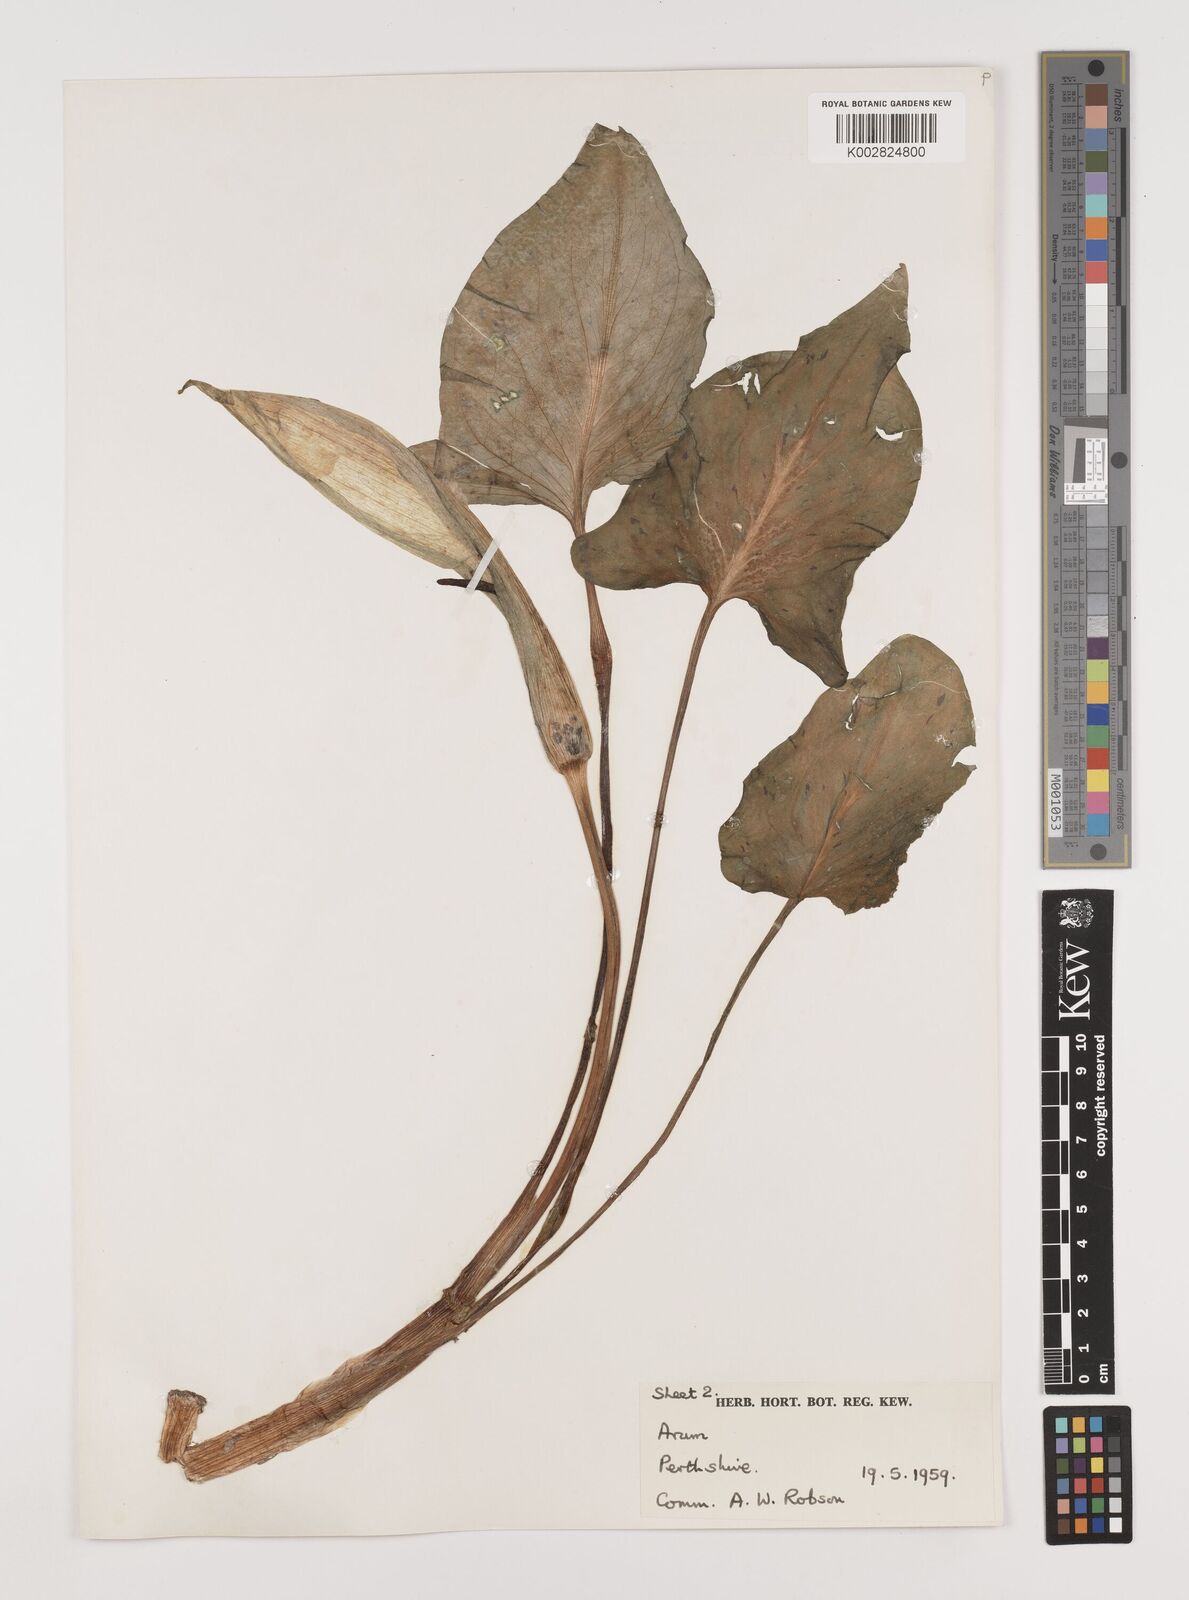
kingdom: Plantae
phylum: Tracheophyta
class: Liliopsida
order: Alismatales
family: Araceae
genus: Arum
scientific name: Arum maculatum
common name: Lords-and-ladies
